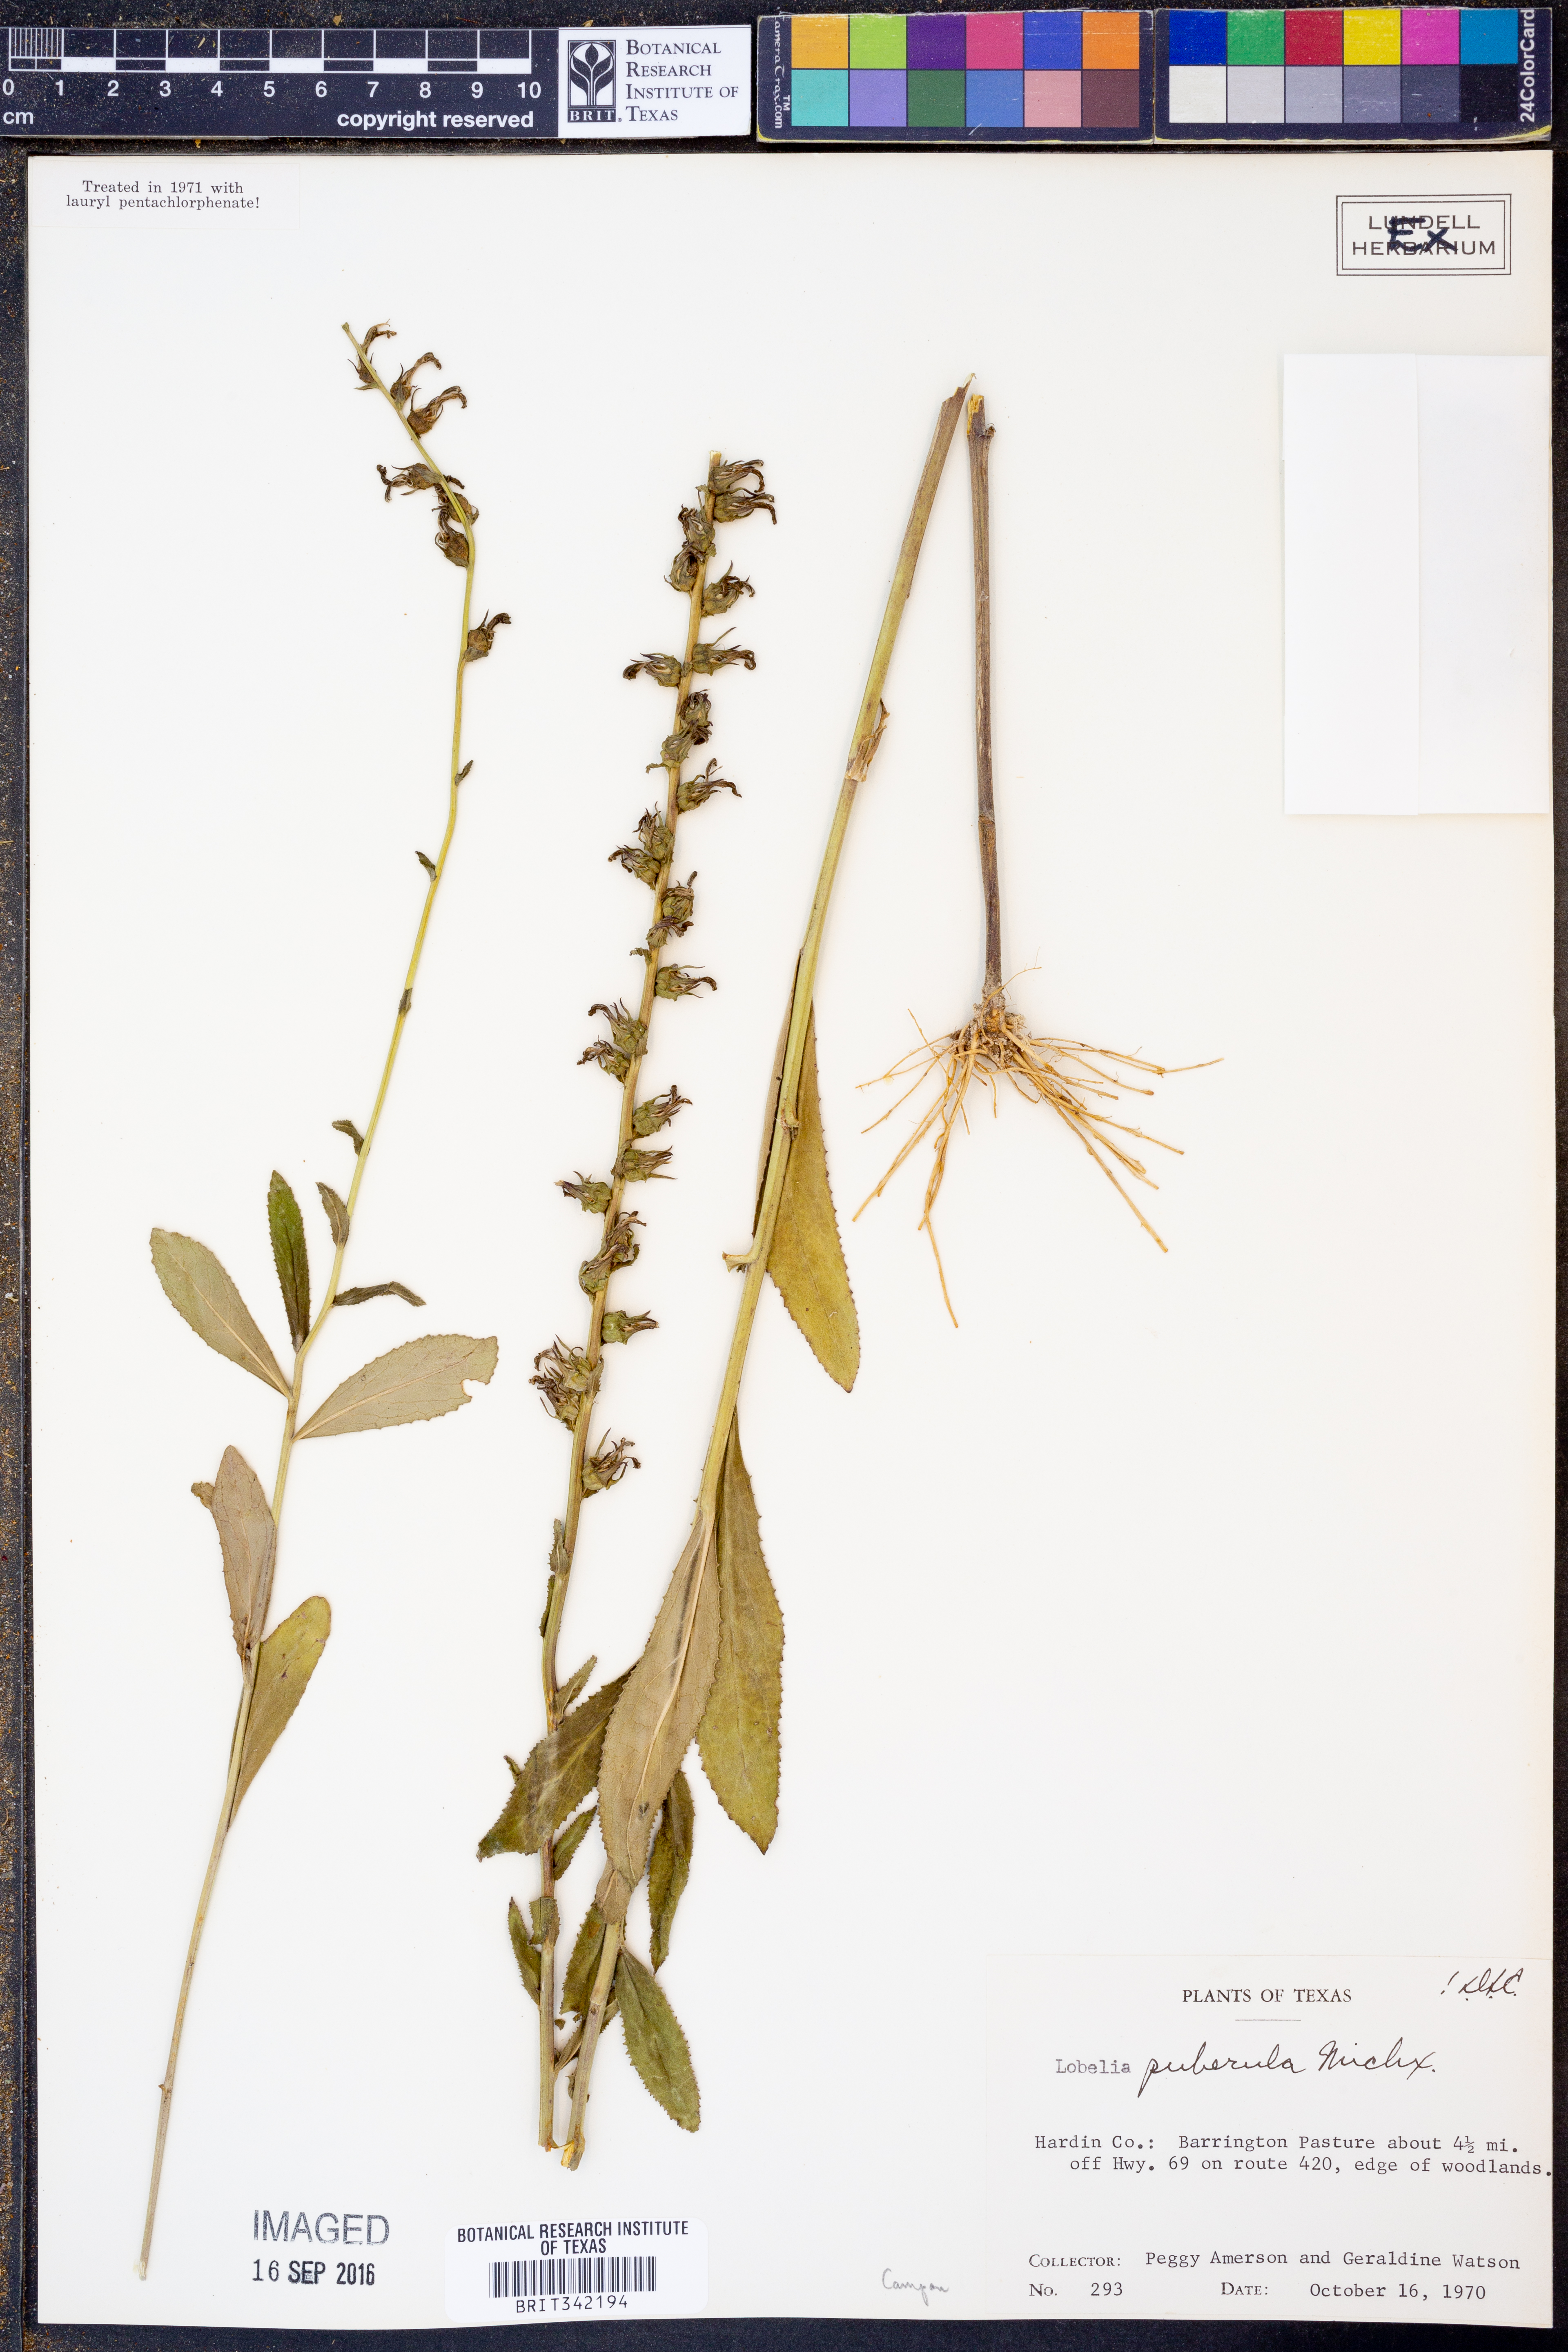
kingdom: Plantae
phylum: Tracheophyta
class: Magnoliopsida
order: Asterales
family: Campanulaceae
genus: Lobelia
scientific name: Lobelia puberula
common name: Purple dewdrop
